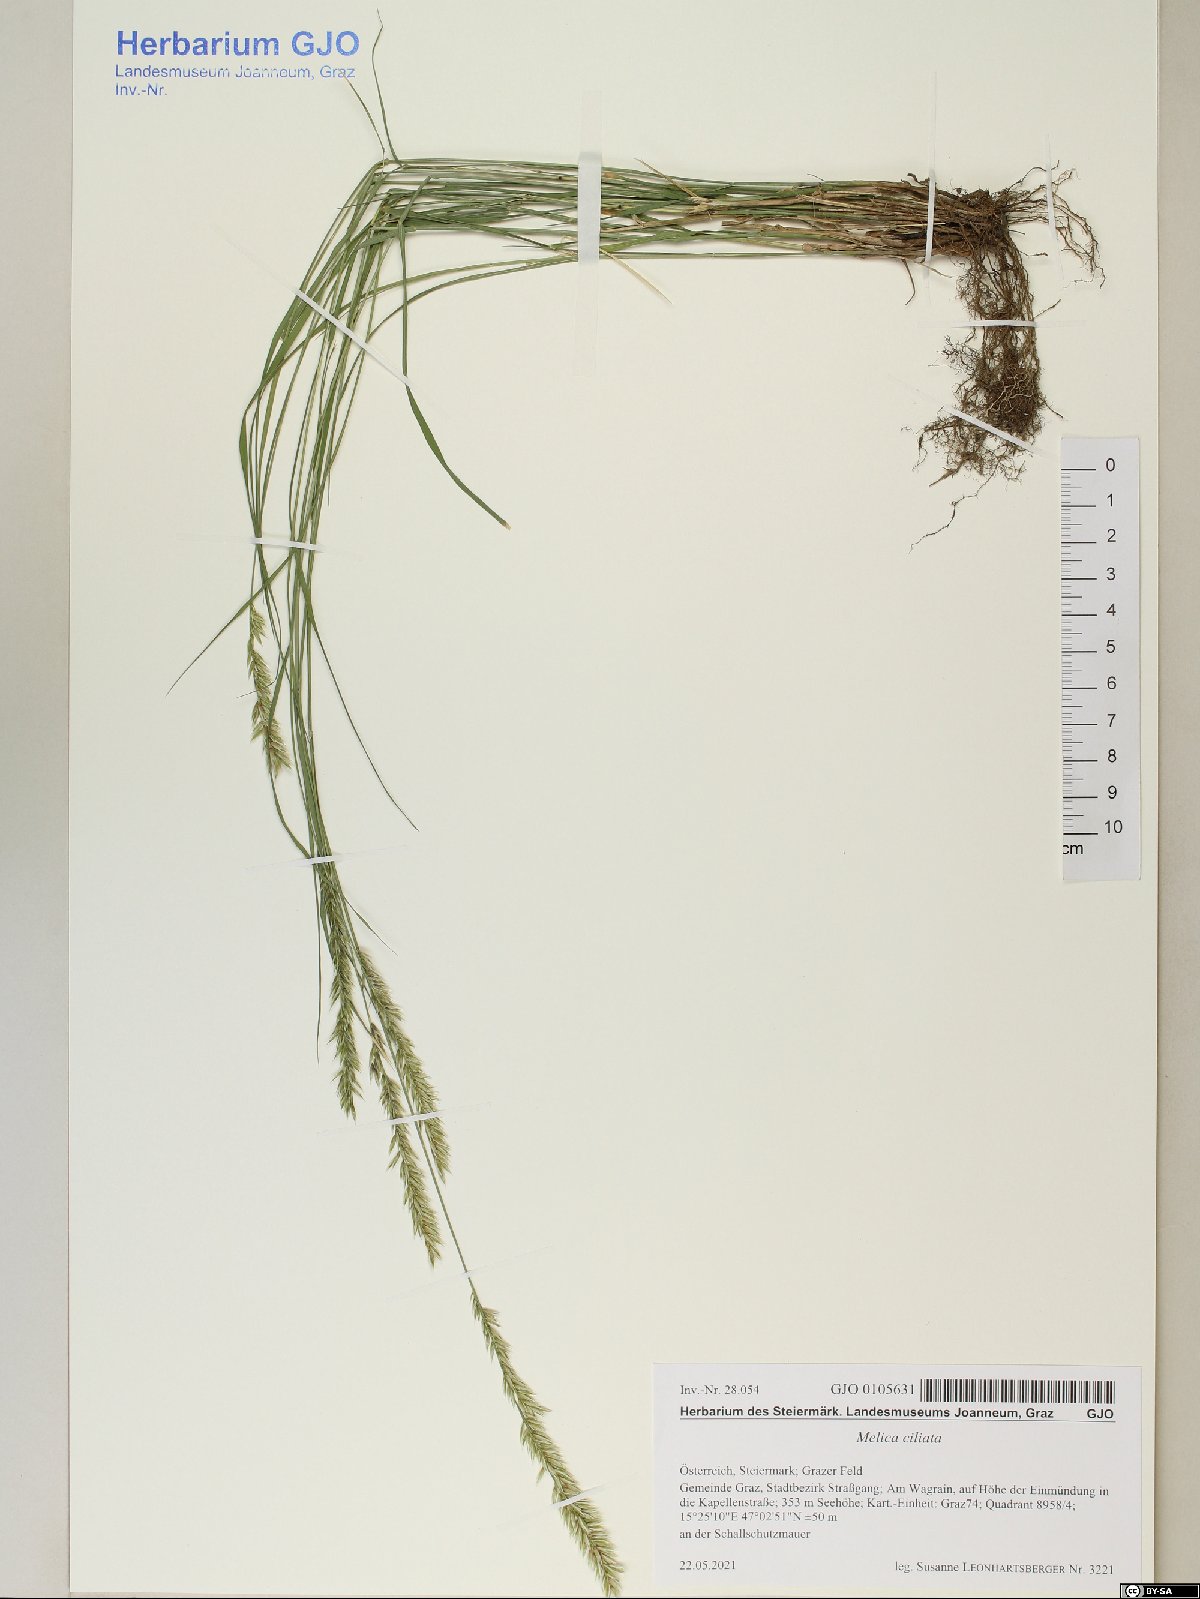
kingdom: Plantae
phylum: Tracheophyta
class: Liliopsida
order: Poales
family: Poaceae
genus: Melica
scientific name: Melica ciliata
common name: Hairy melicgrass
